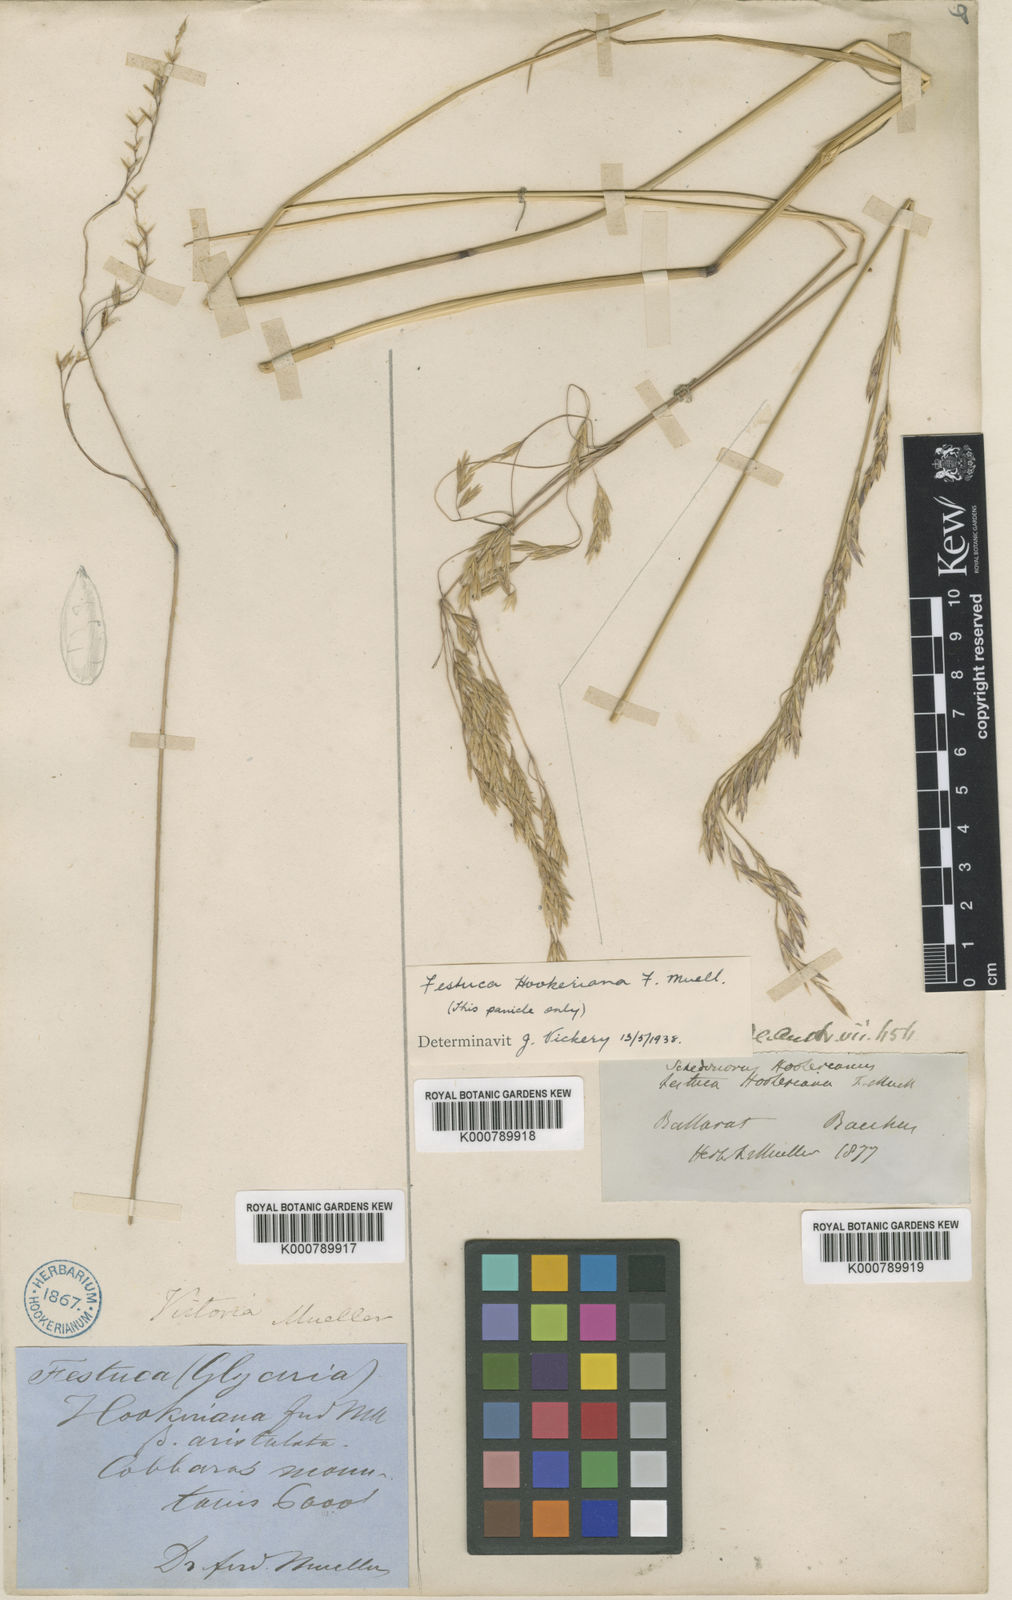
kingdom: Plantae
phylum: Tracheophyta
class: Liliopsida
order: Poales
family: Poaceae
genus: Hookerochloa
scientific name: Hookerochloa hookeriana
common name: Hooker's-fescue
